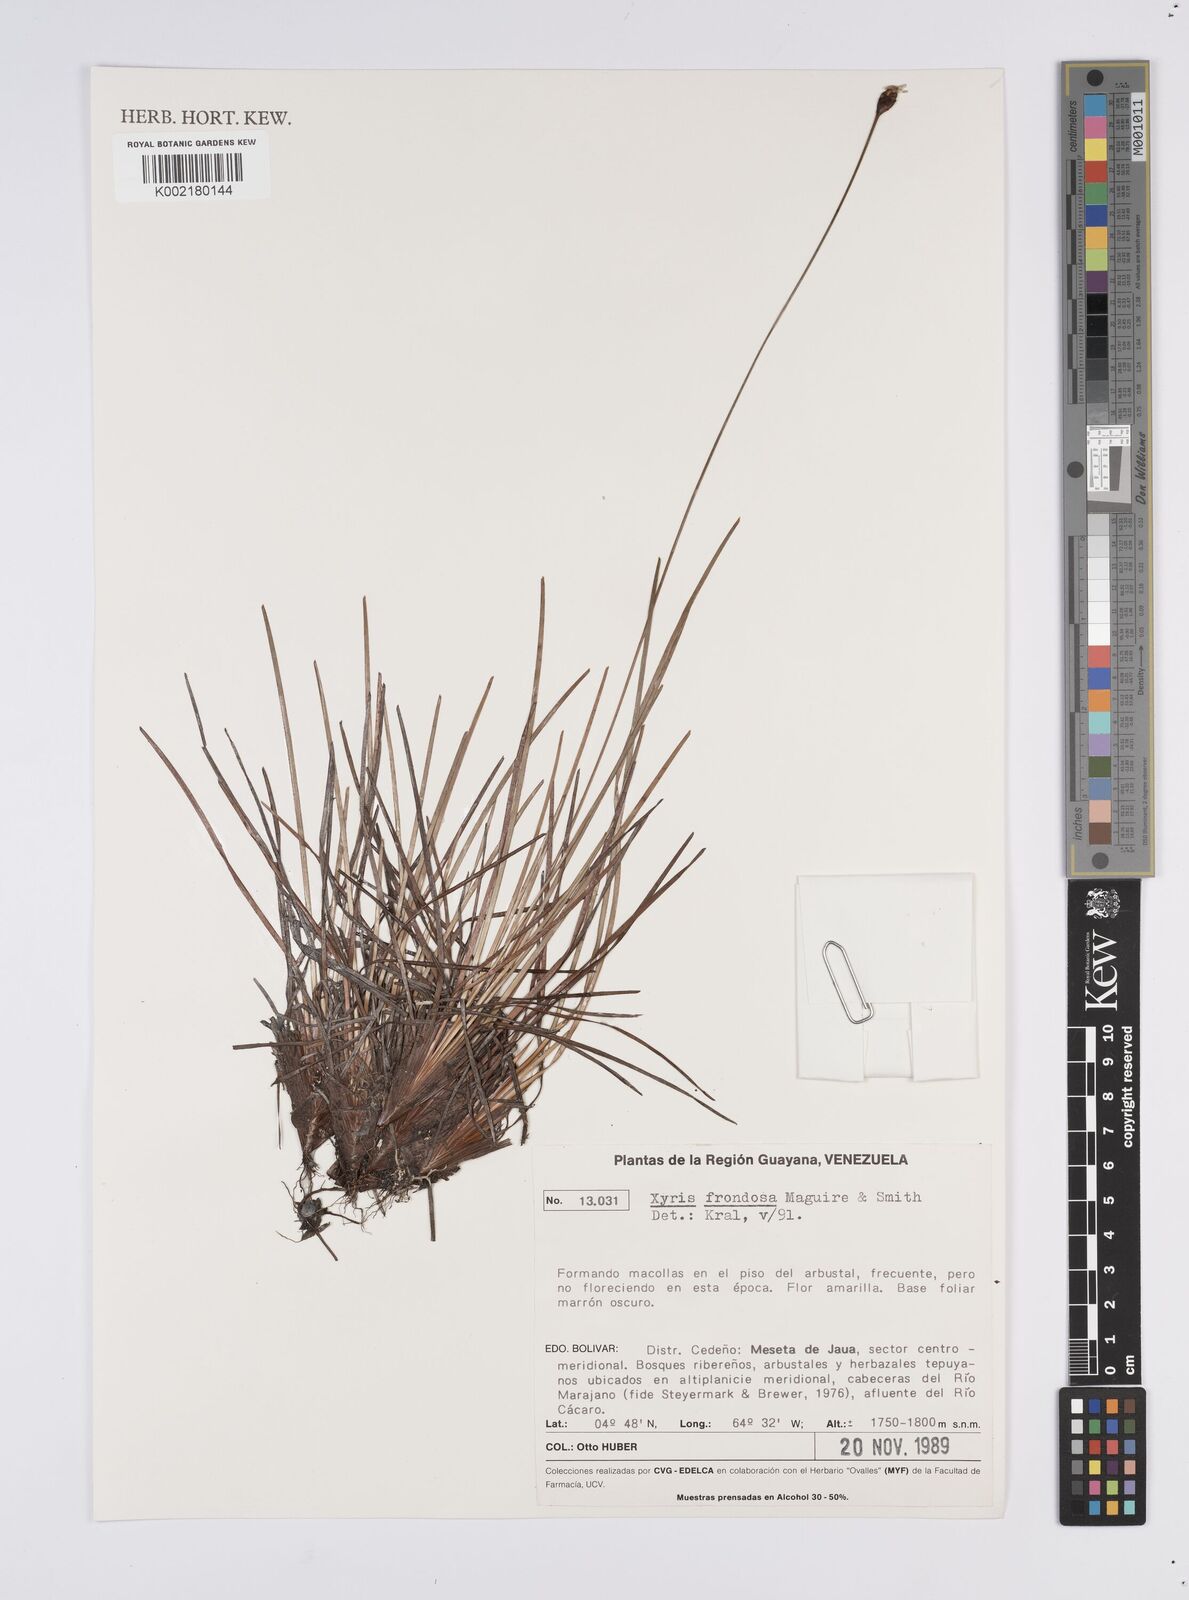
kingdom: Plantae
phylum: Tracheophyta
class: Liliopsida
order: Poales
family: Xyridaceae
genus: Xyris
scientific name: Xyris frondosa
